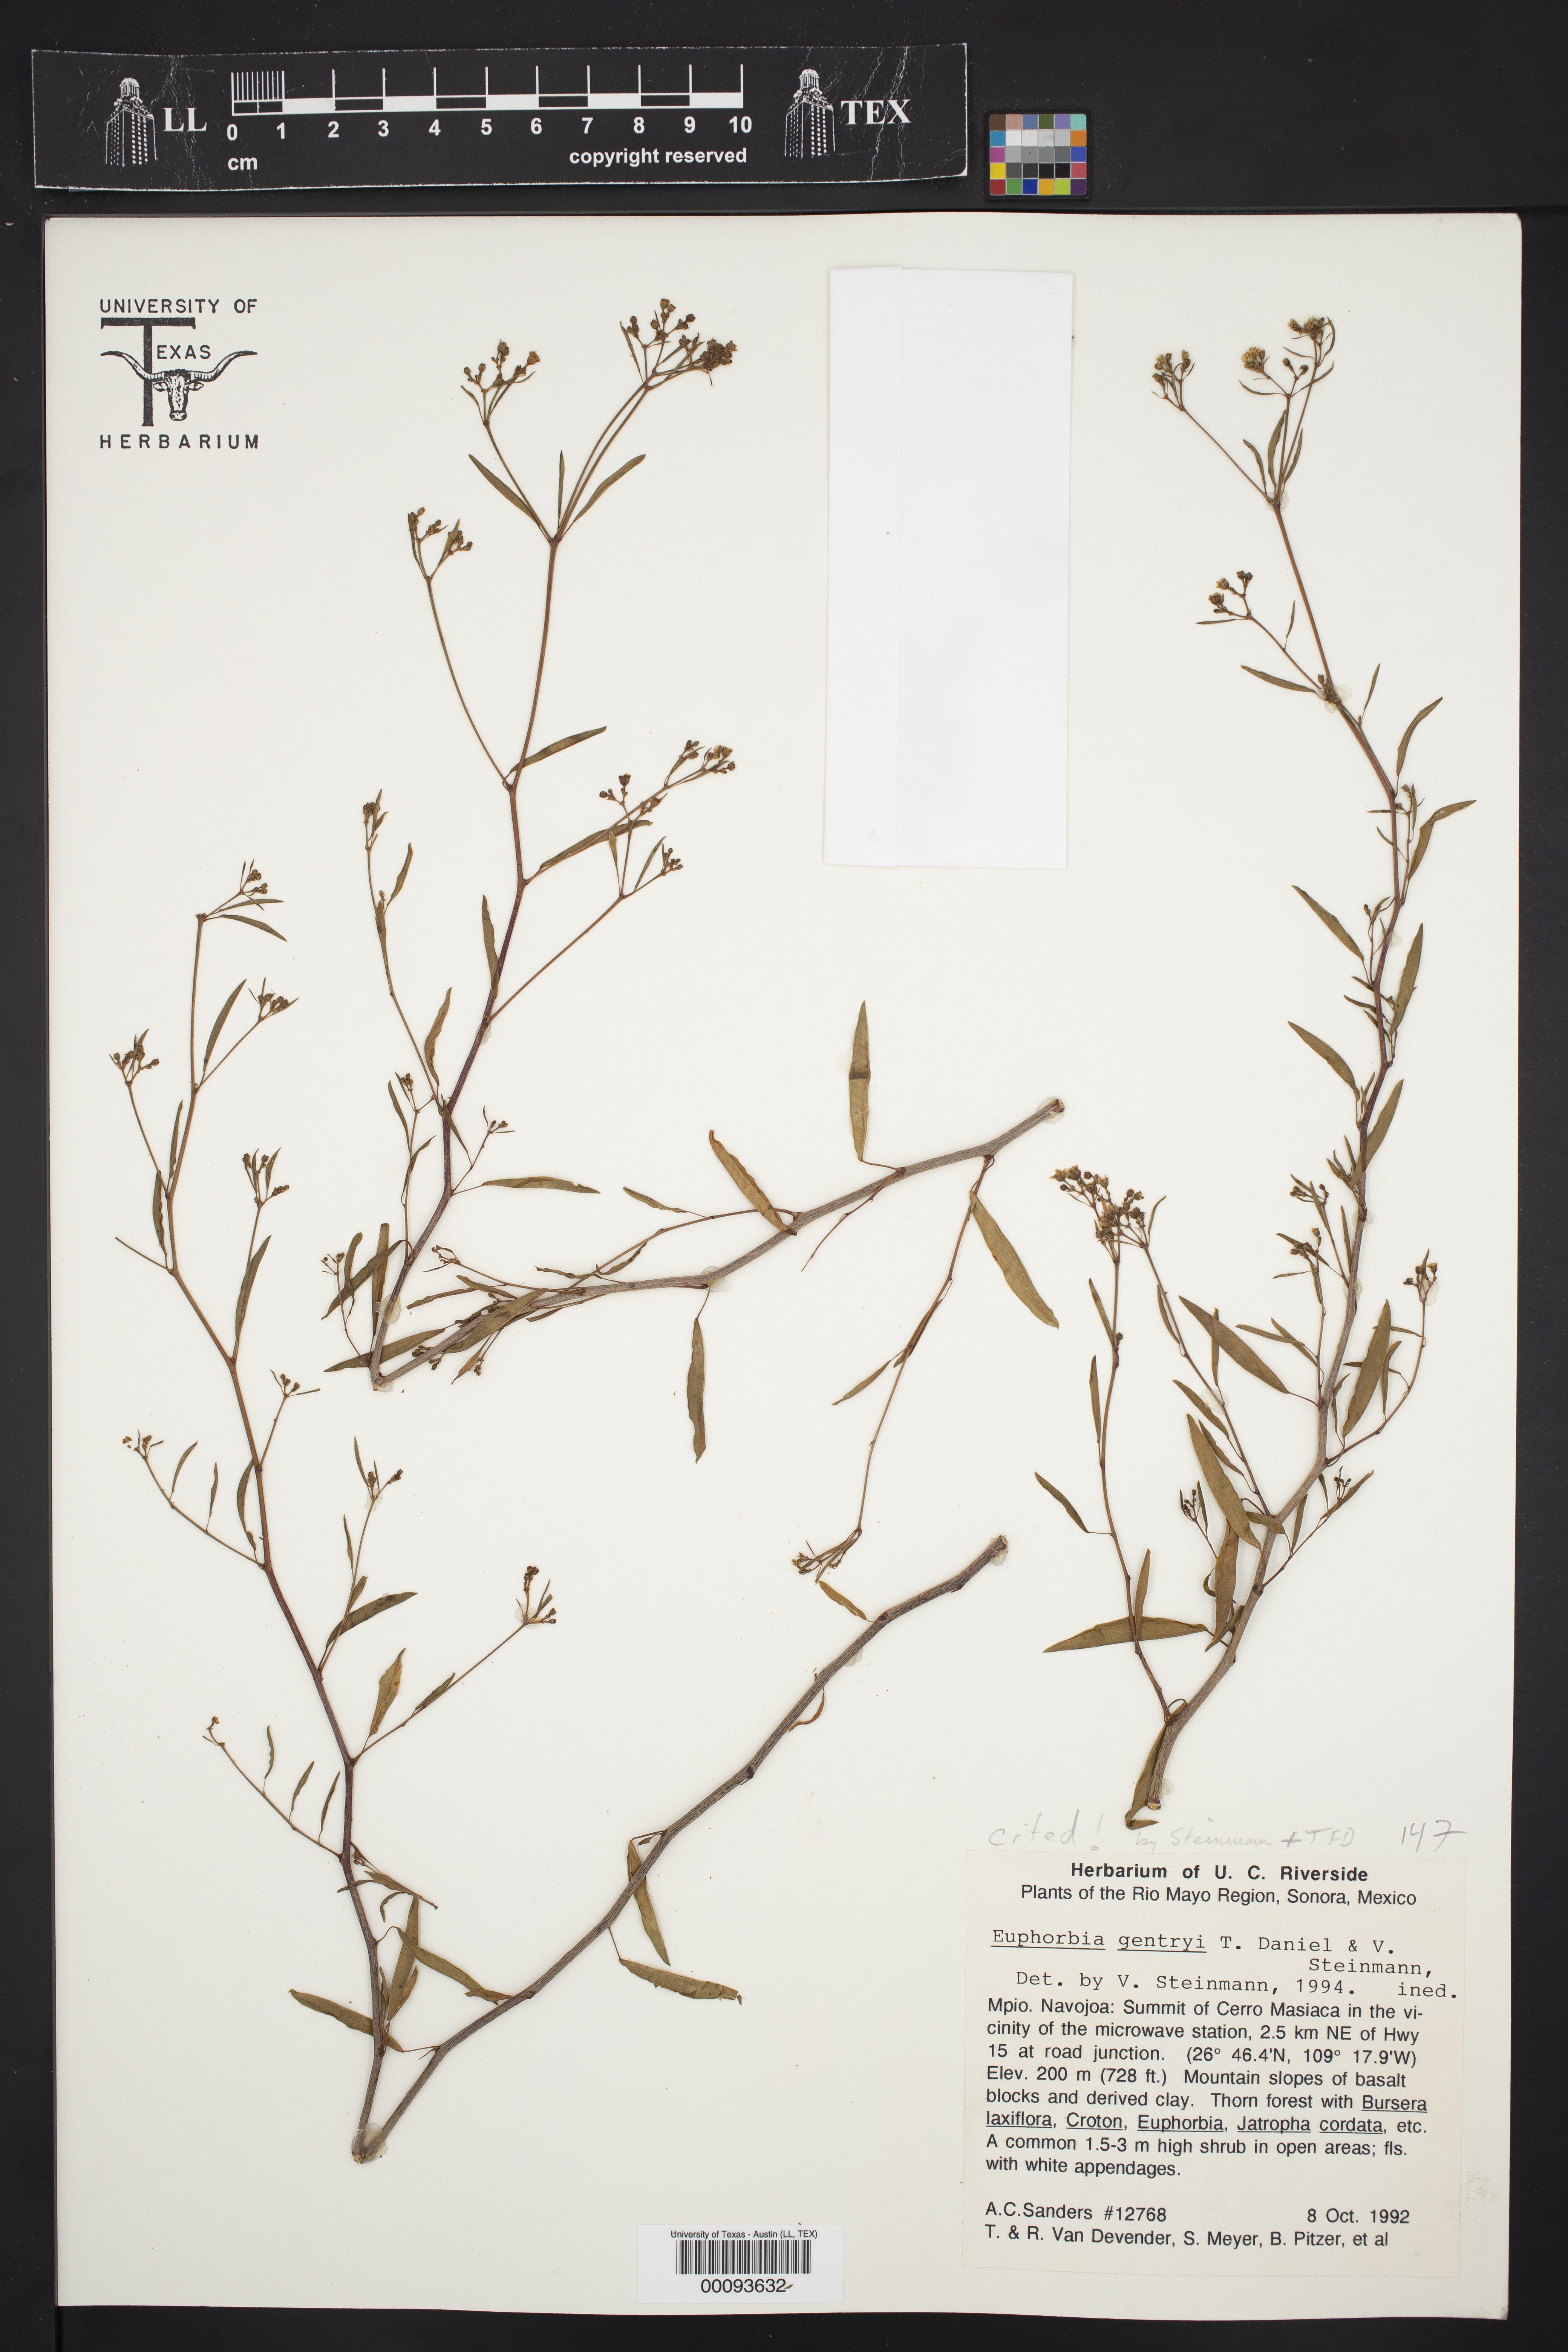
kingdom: Plantae
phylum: Tracheophyta
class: Magnoliopsida
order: Malpighiales
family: Euphorbiaceae
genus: Euphorbia
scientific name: Euphorbia gentryi
